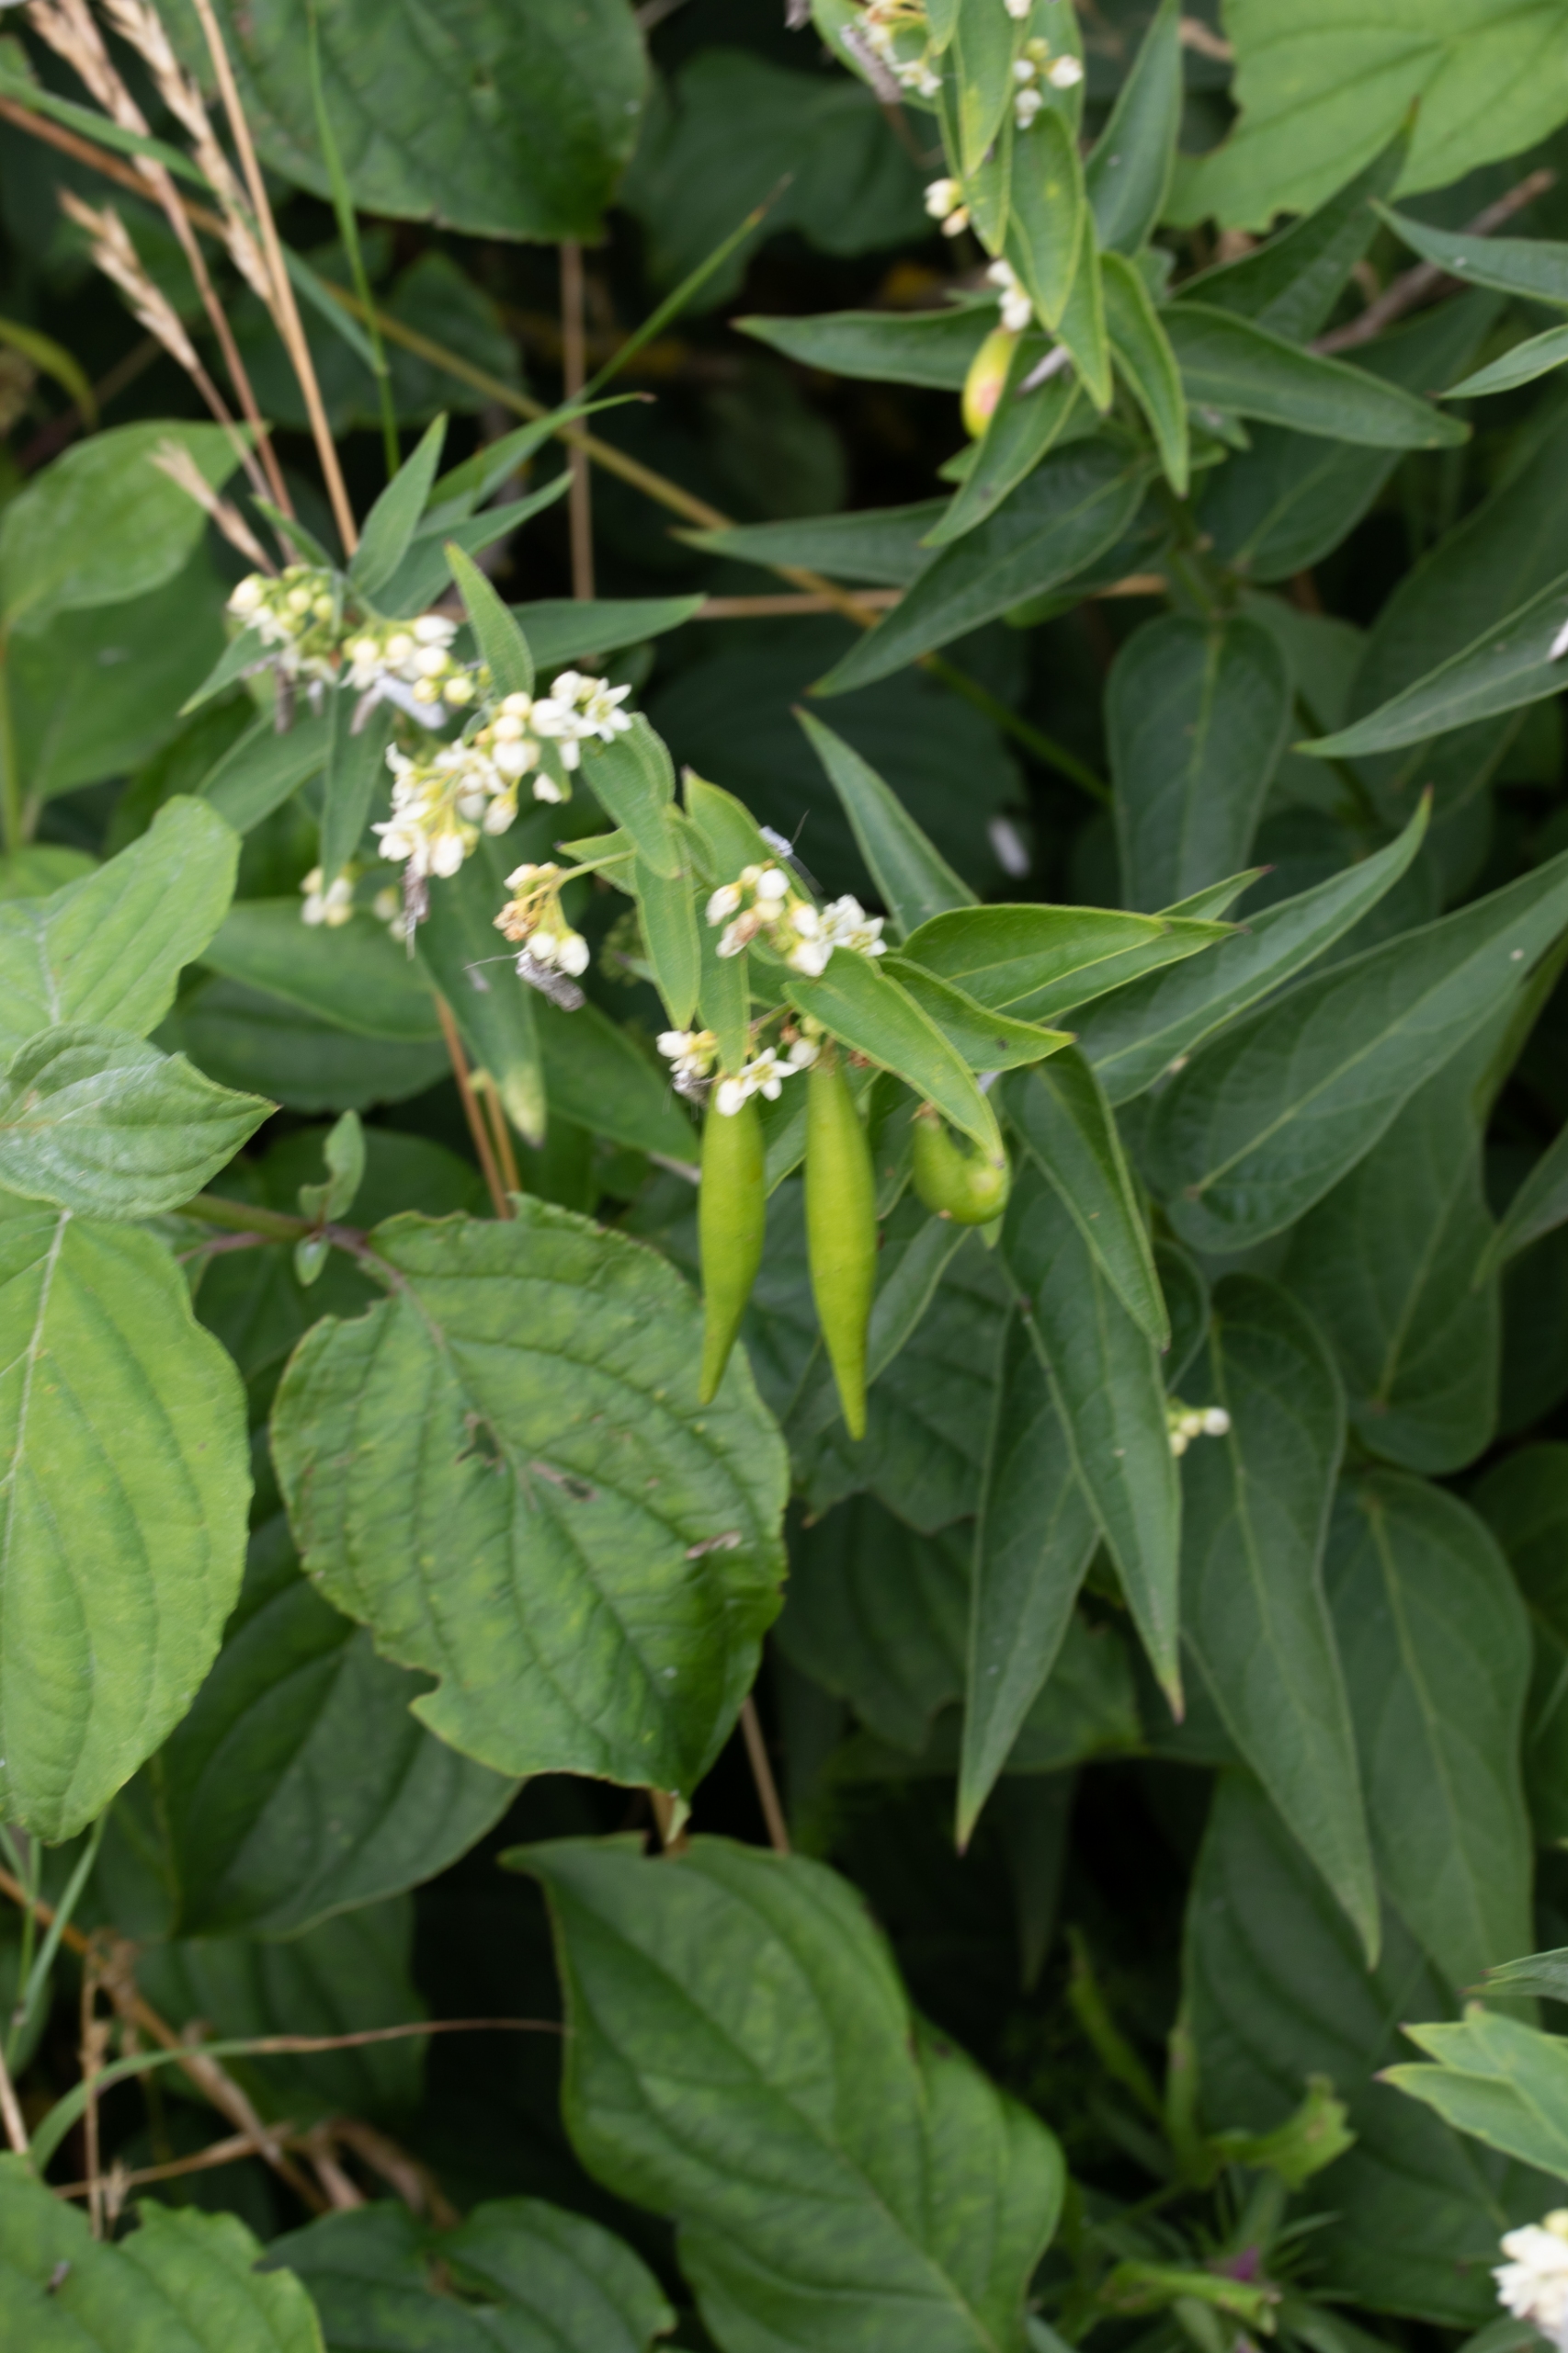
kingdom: Plantae
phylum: Tracheophyta
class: Magnoliopsida
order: Gentianales
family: Apocynaceae
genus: Vincetoxicum
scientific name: Vincetoxicum hirundinaria
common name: Svalerod
